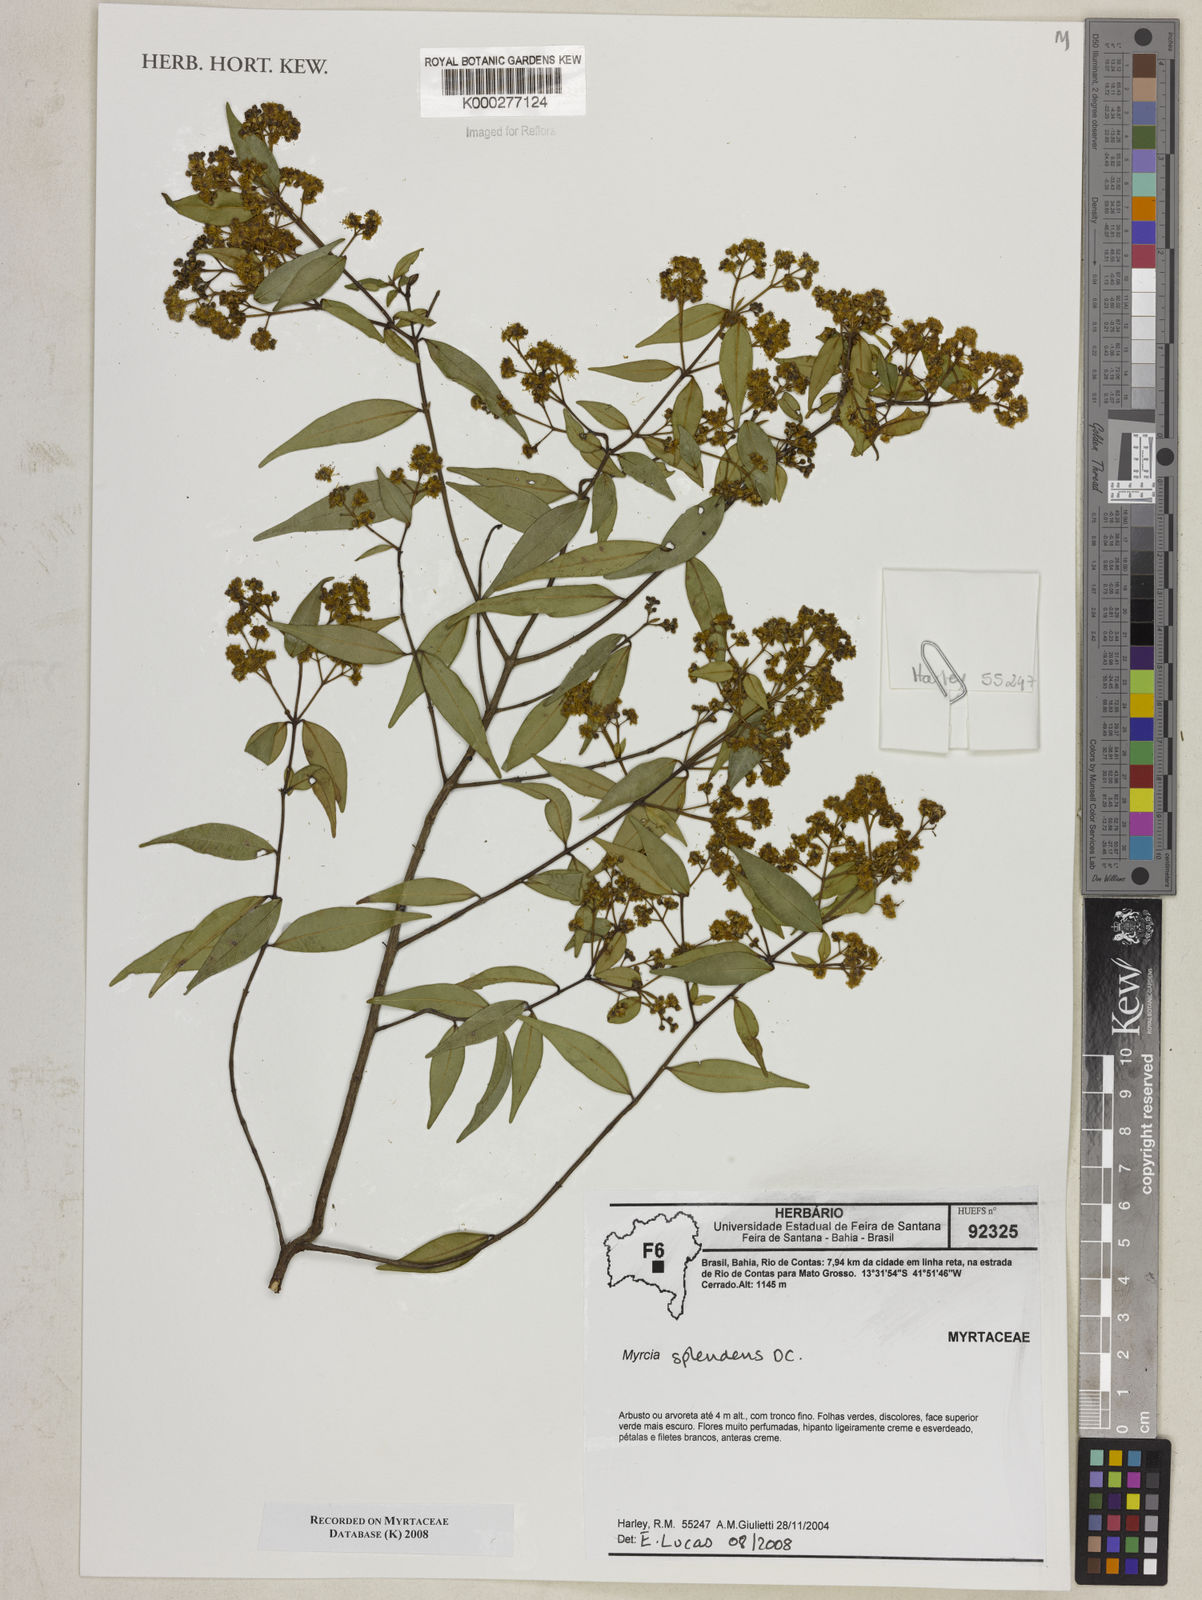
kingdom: Plantae
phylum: Tracheophyta
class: Magnoliopsida
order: Myrtales
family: Myrtaceae
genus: Myrcia
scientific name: Myrcia splendens
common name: Surinam cherry
